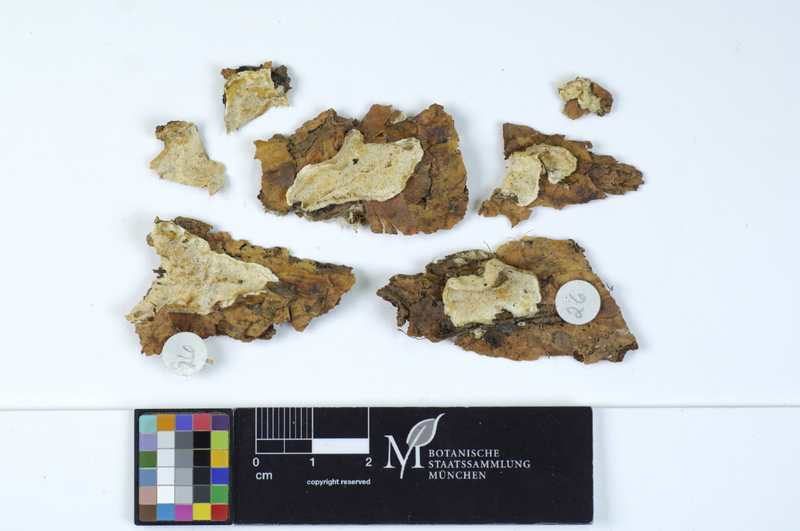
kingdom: Plantae
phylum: Tracheophyta
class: Pinopsida
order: Pinales
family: Pinaceae
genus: Pinus
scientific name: Pinus
